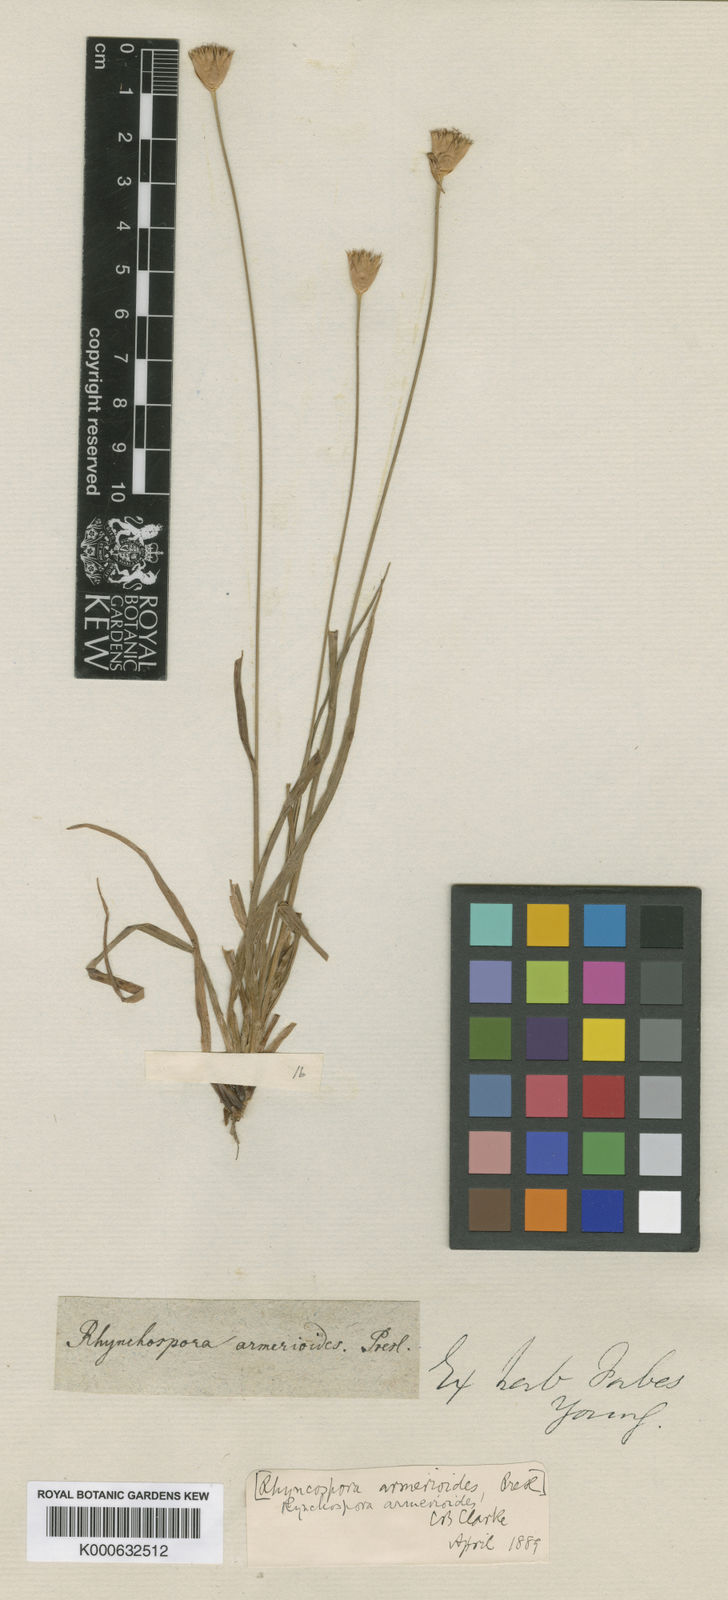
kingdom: Plantae
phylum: Tracheophyta
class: Liliopsida
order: Poales
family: Cyperaceae
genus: Rhynchospora
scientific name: Rhynchospora armerioides
